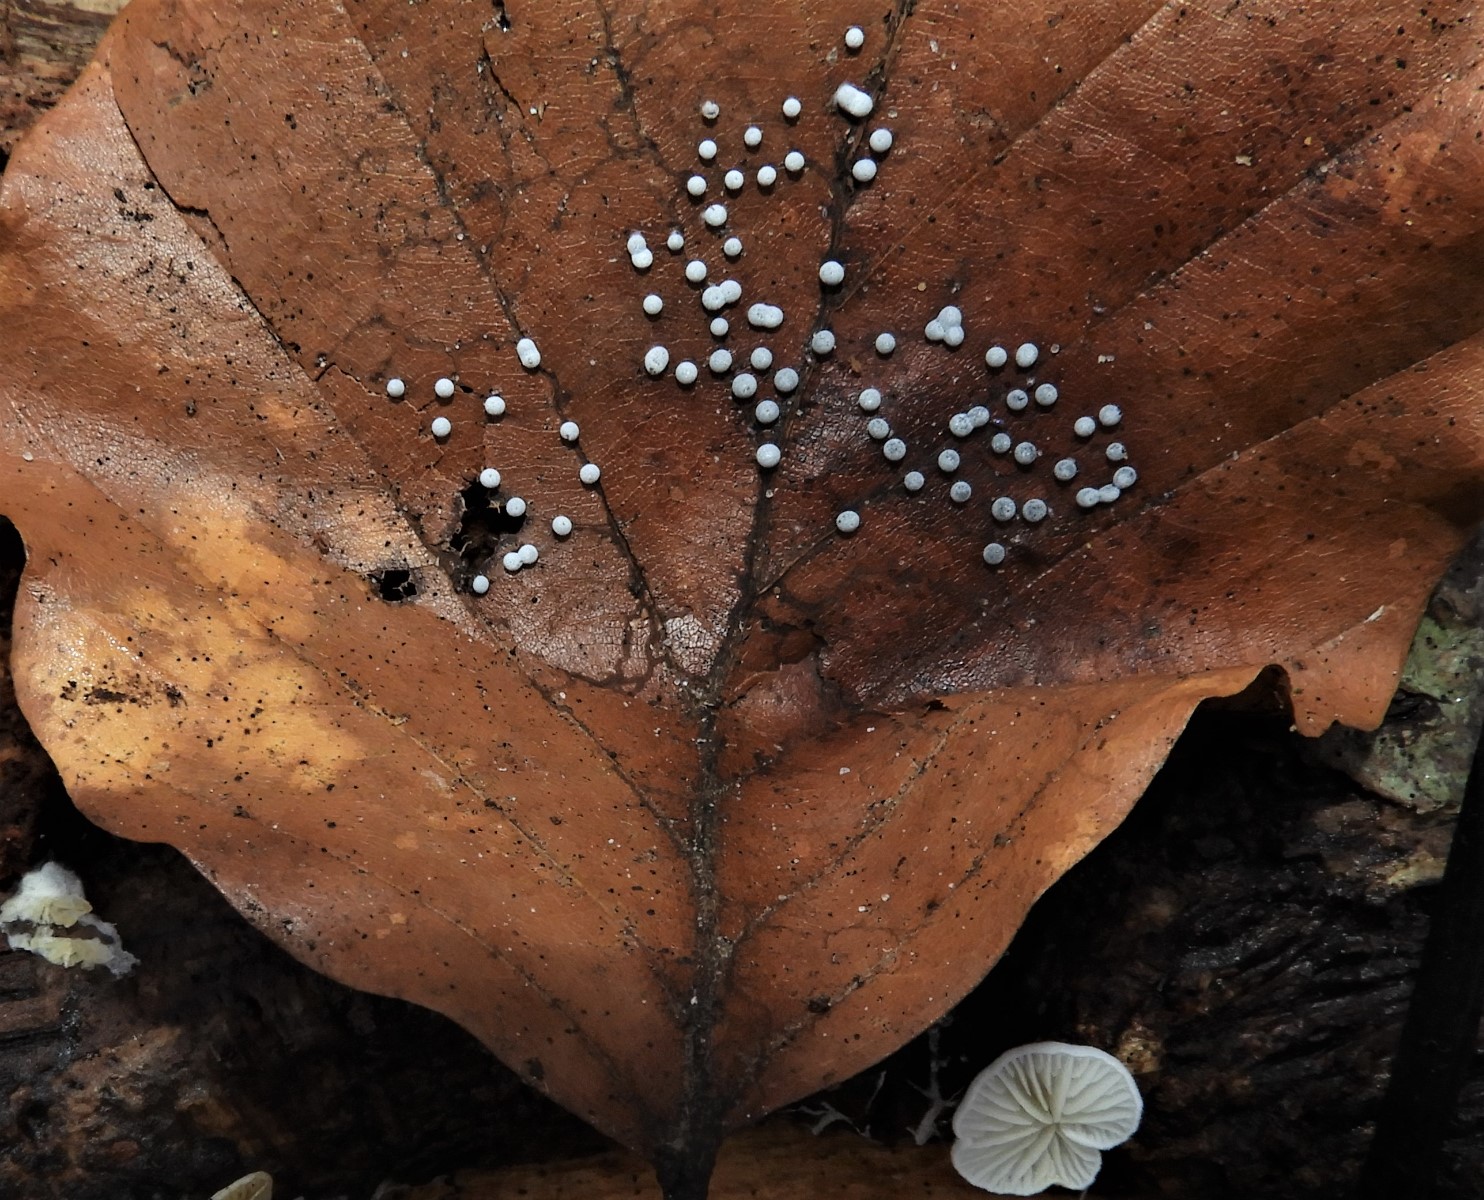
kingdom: Protozoa
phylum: Mycetozoa
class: Myxomycetes
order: Physarales
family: Didymiaceae
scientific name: Didymiaceae
